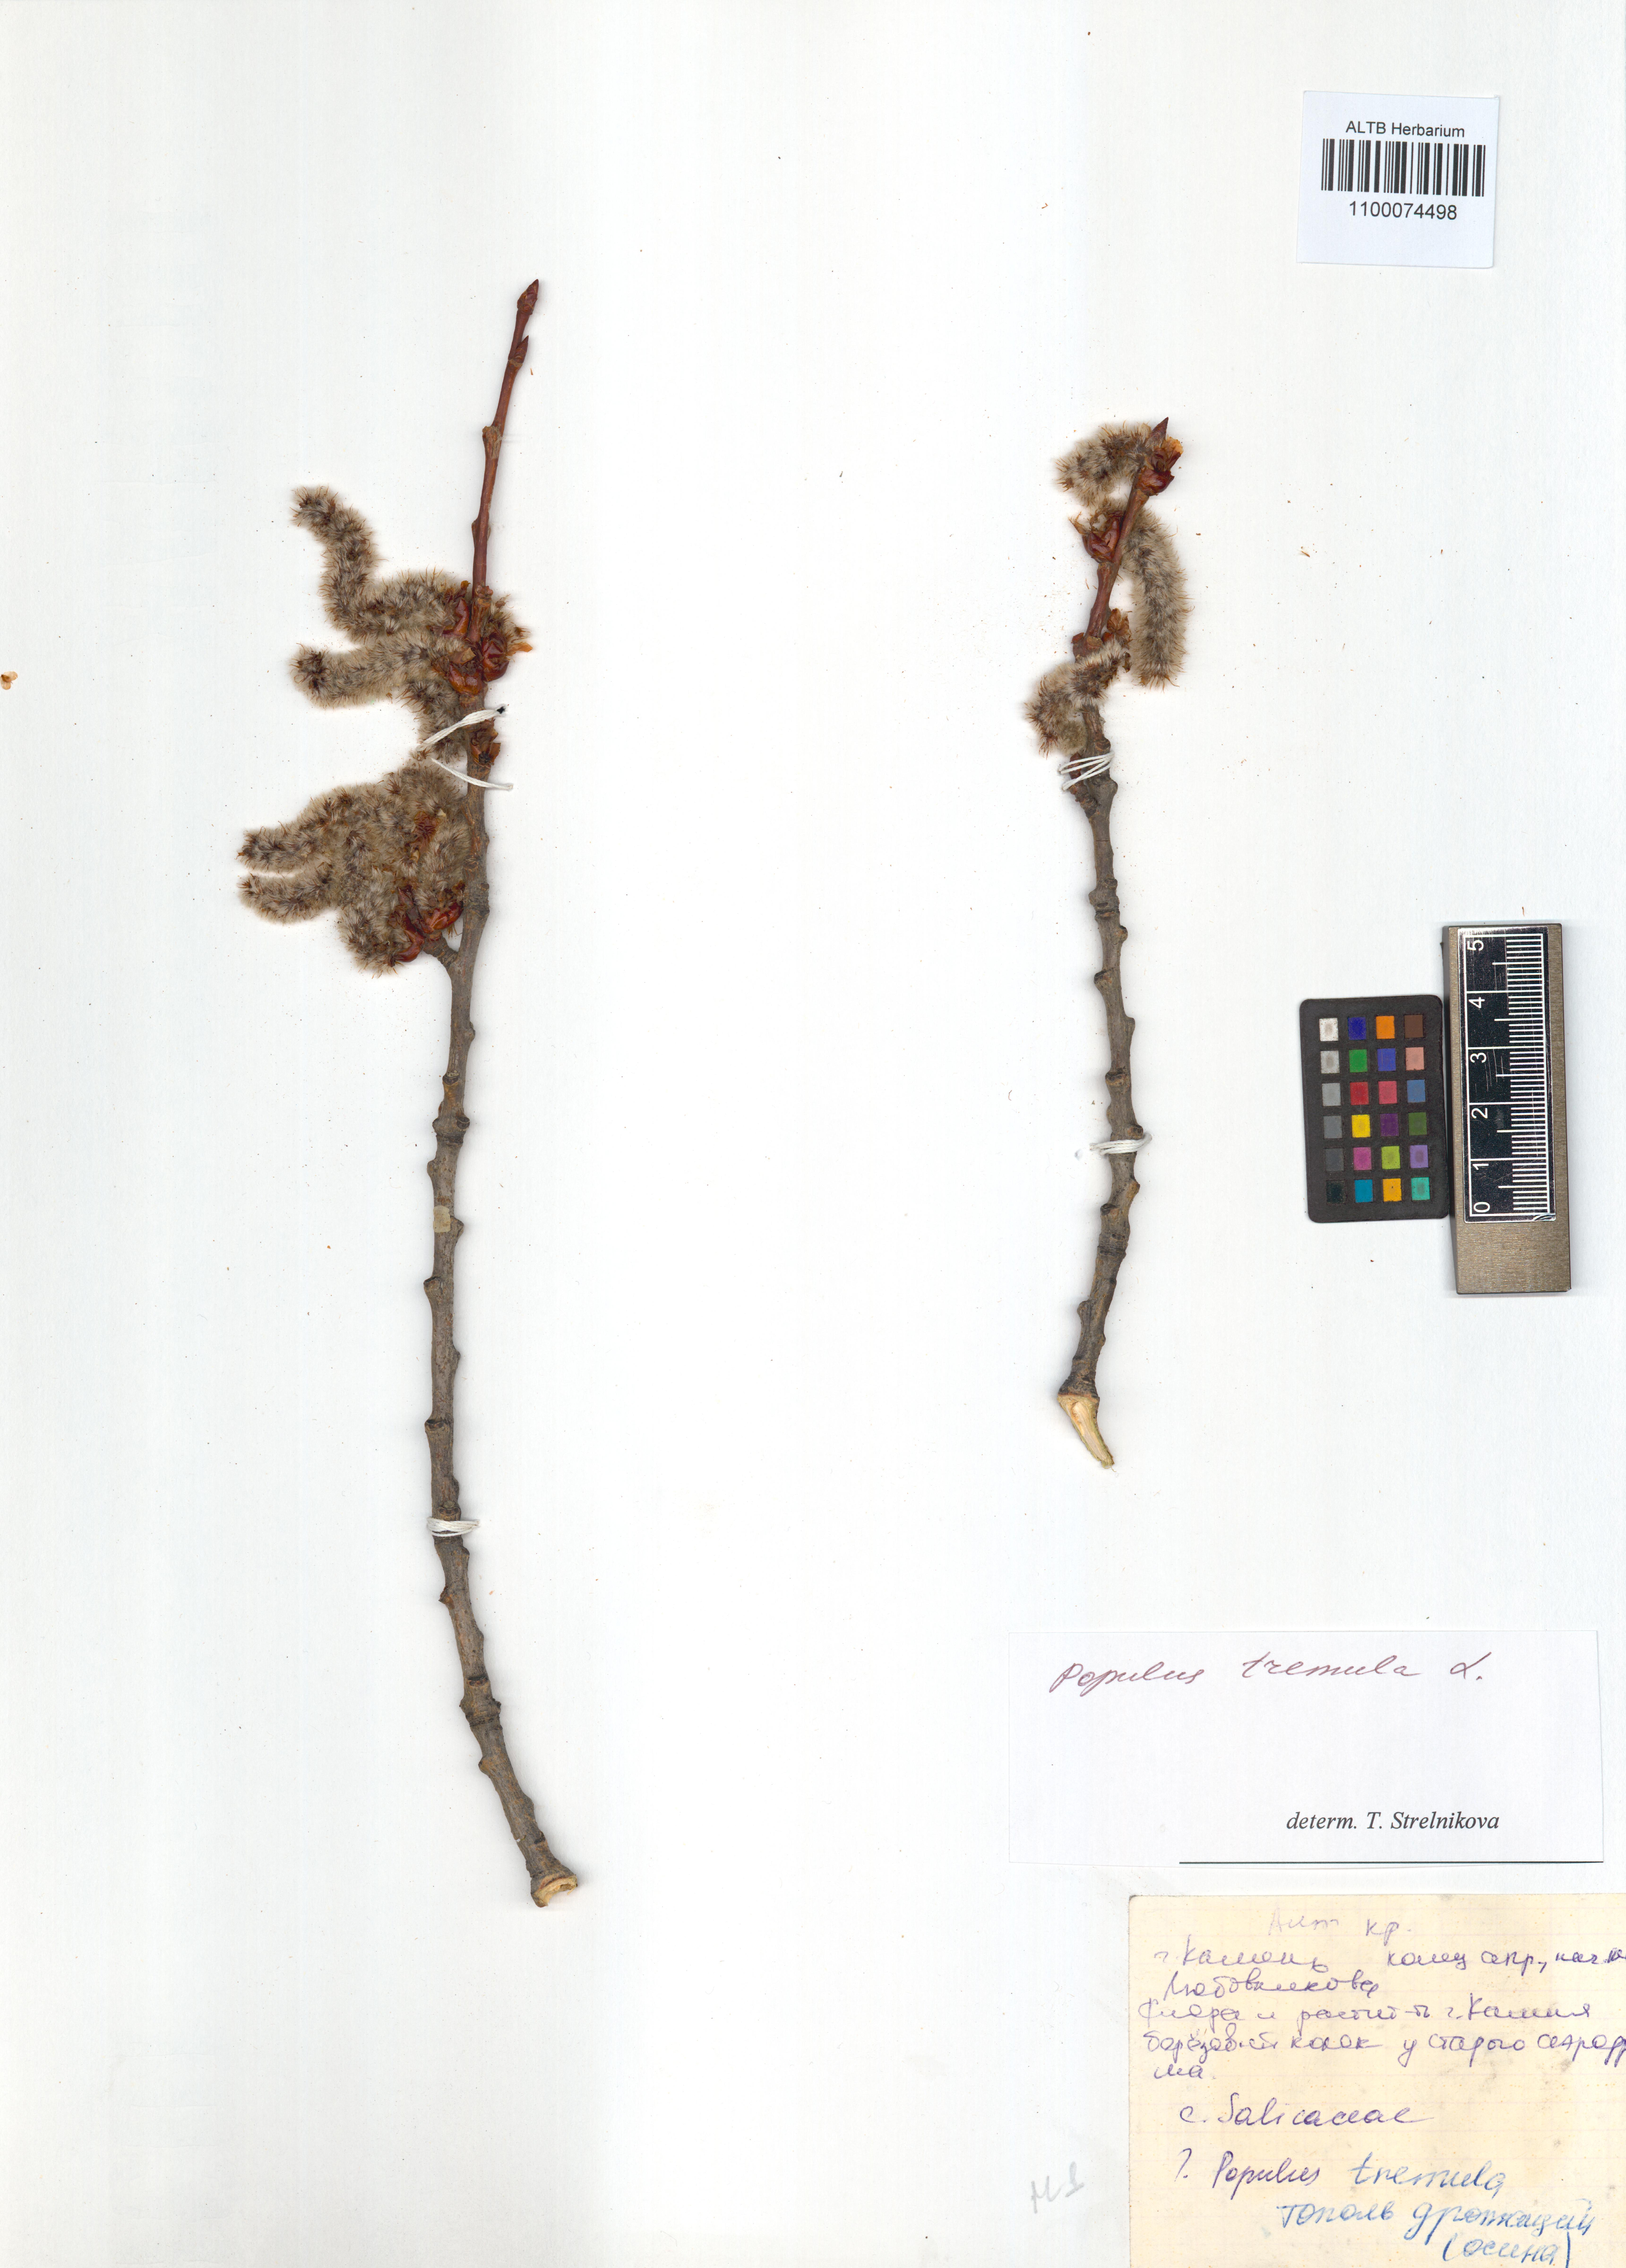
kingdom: Plantae
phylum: Tracheophyta
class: Magnoliopsida
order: Malpighiales
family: Salicaceae
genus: Populus
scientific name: Populus tremula
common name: European aspen
